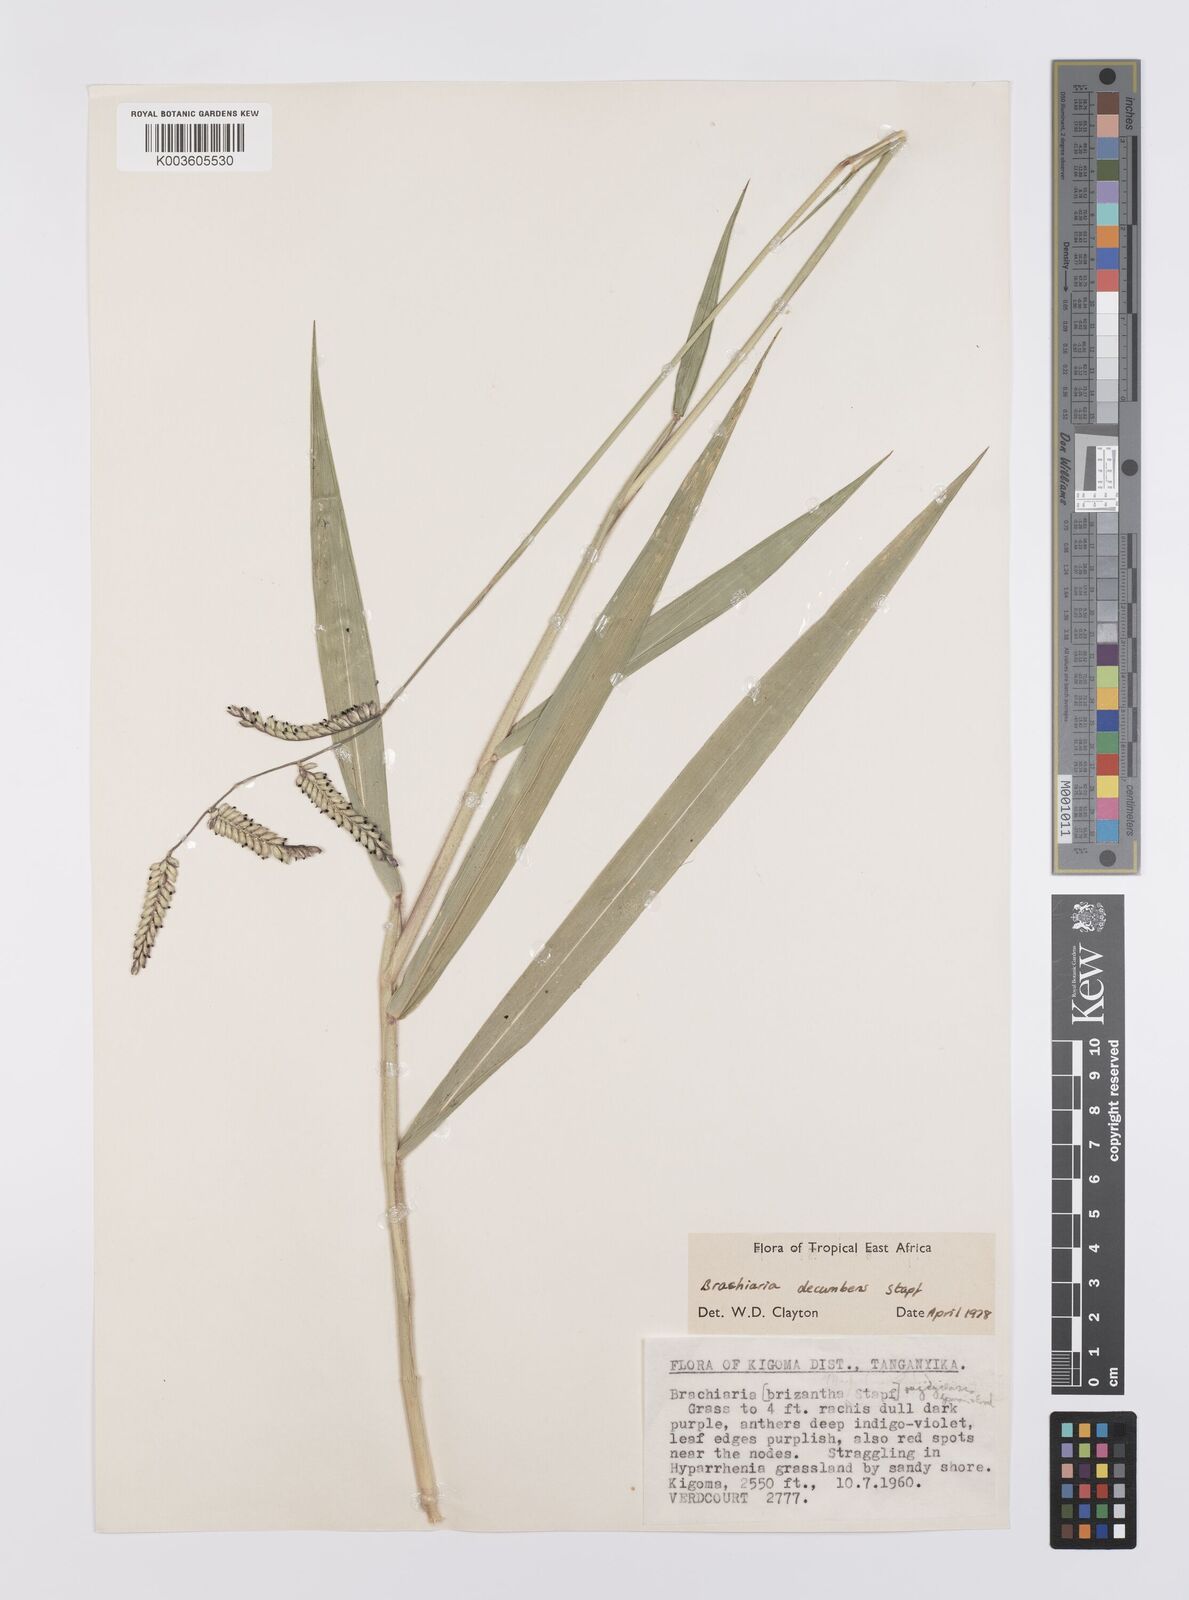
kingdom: Plantae
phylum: Tracheophyta
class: Liliopsida
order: Poales
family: Poaceae
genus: Urochloa
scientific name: Urochloa eminii
